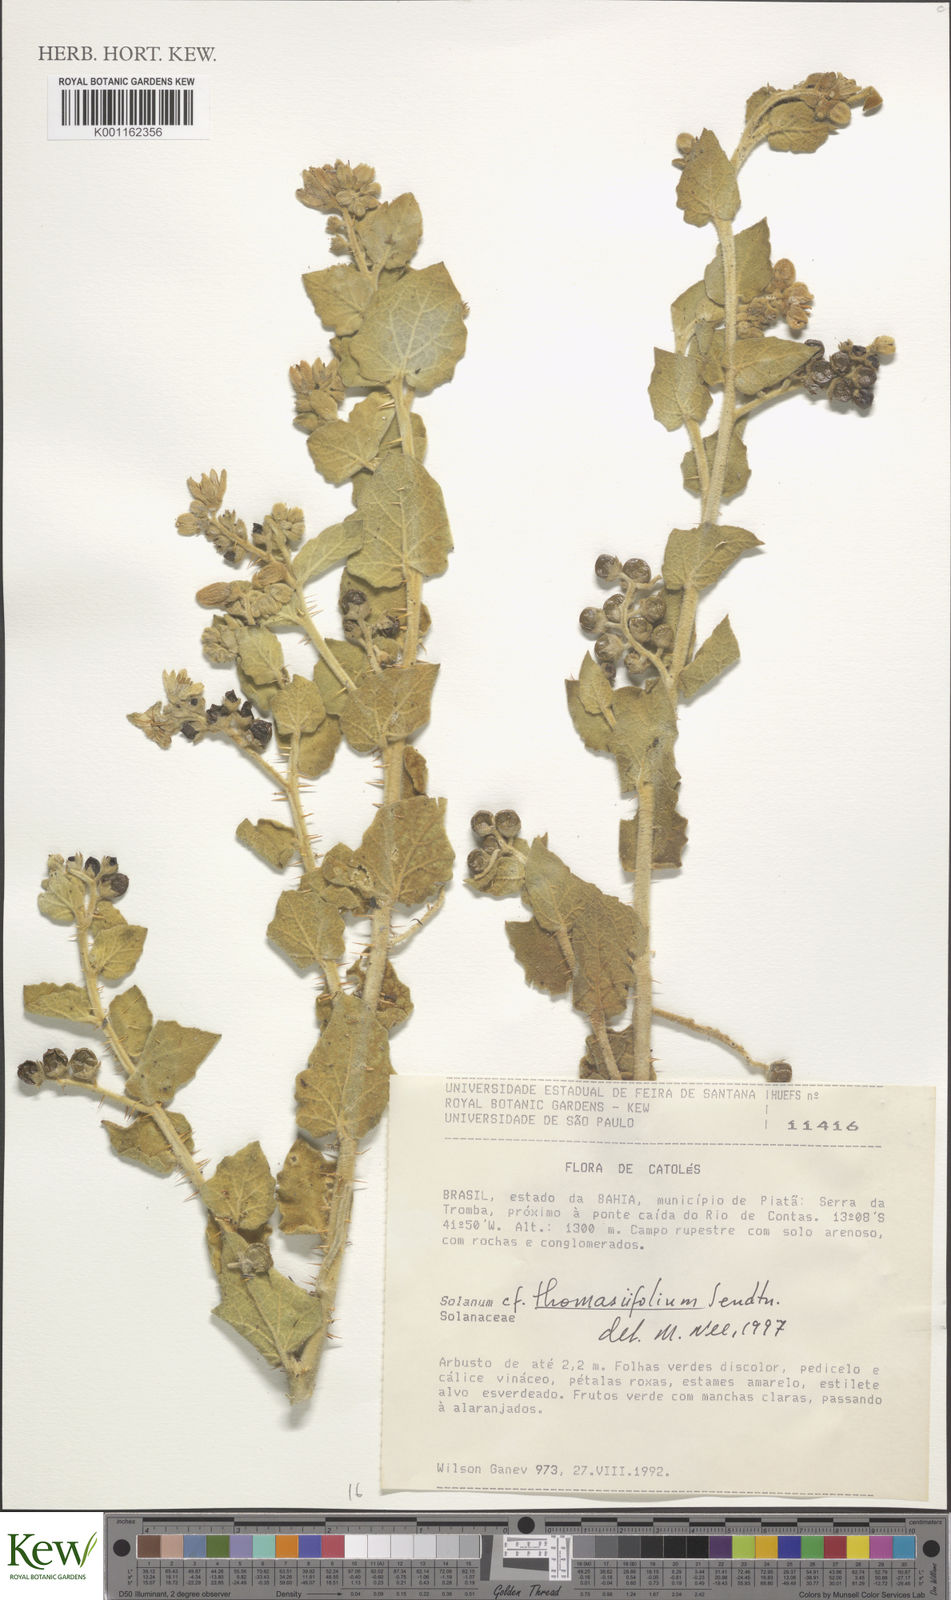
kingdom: Plantae
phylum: Tracheophyta
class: Magnoliopsida
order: Solanales
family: Solanaceae
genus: Solanum
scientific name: Solanum thomasiifolium
